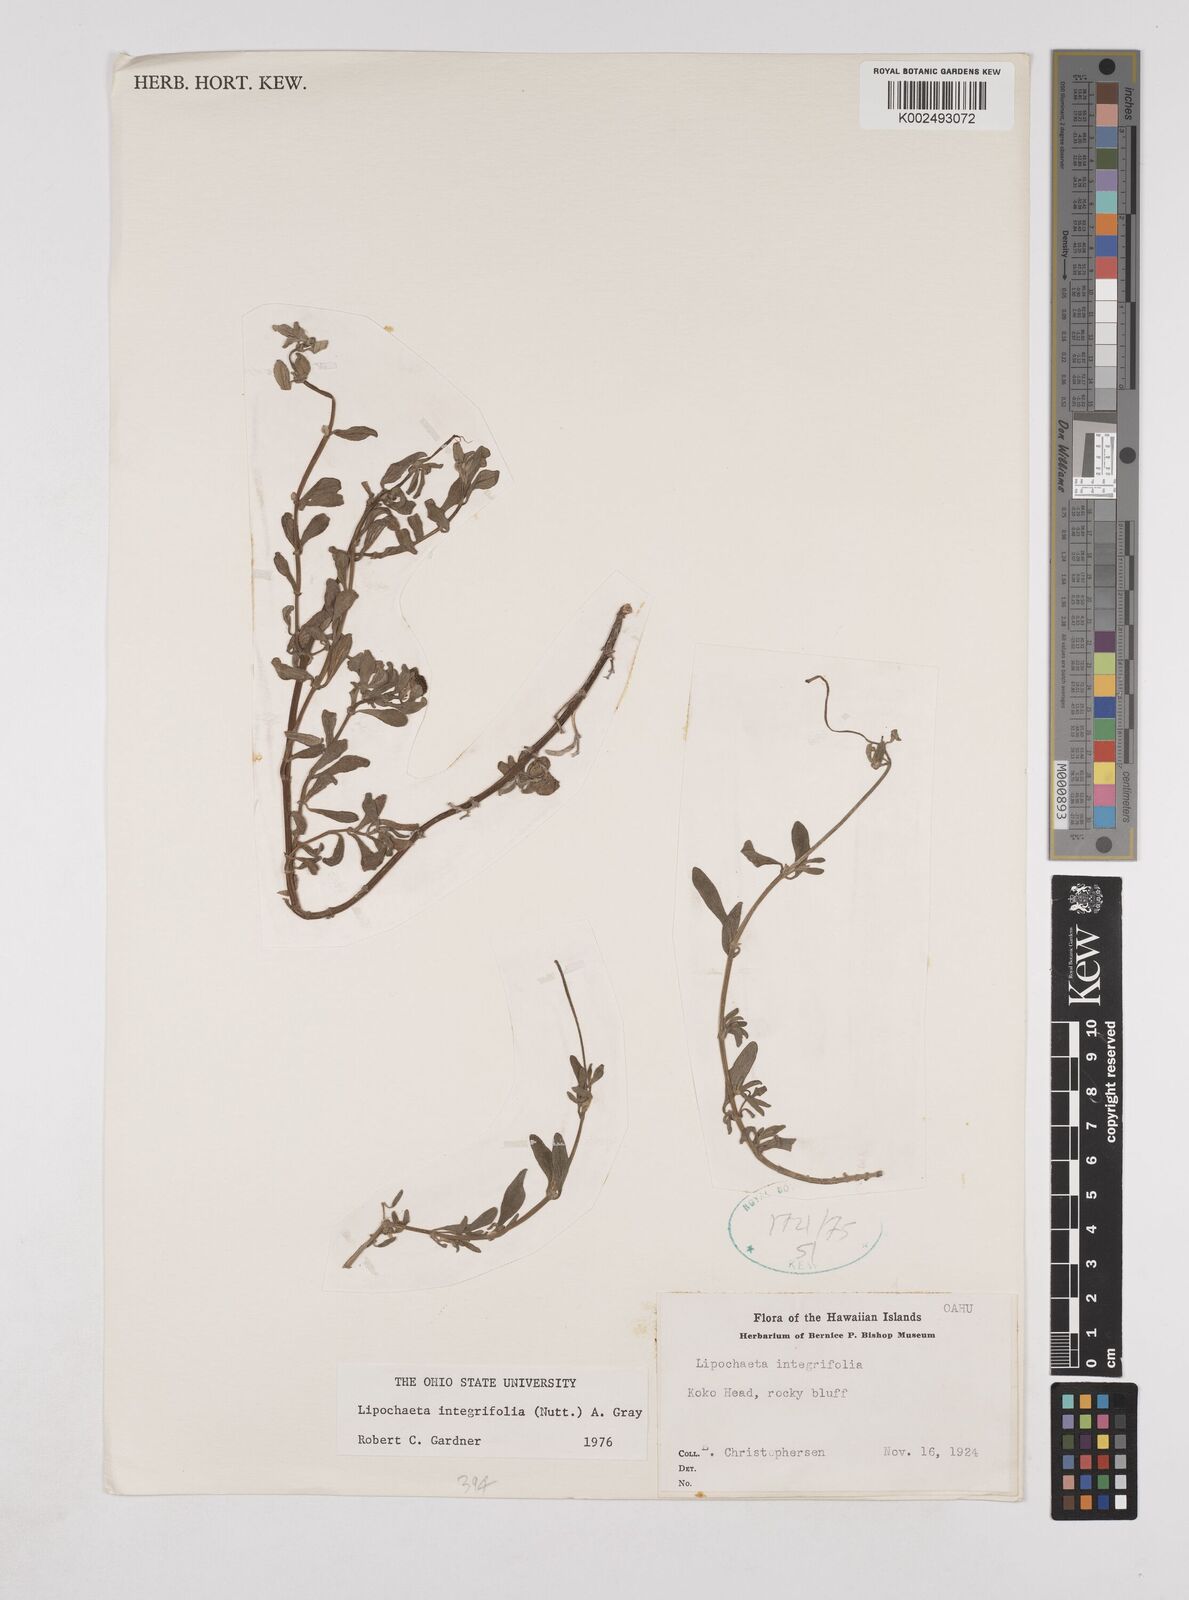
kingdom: Plantae
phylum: Tracheophyta
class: Magnoliopsida
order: Asterales
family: Asteraceae
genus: Lipochaeta
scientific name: Lipochaeta integrifolia
